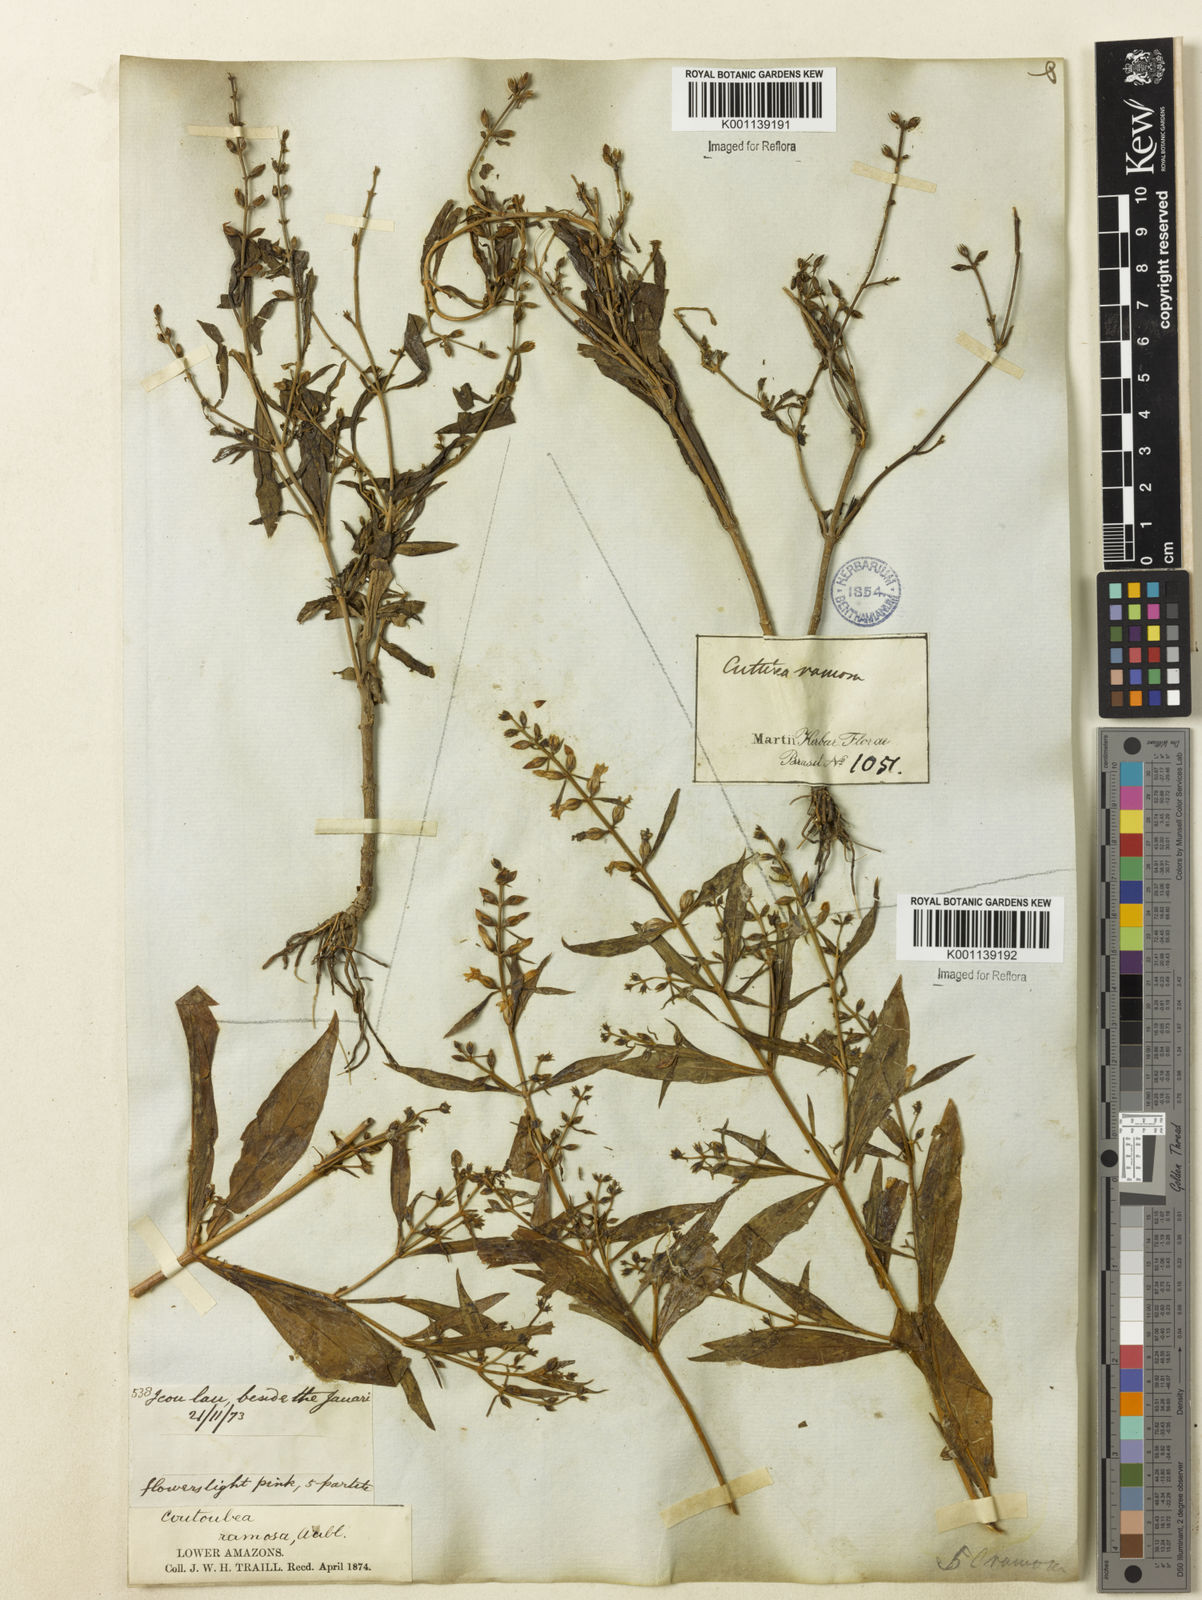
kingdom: Plantae
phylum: Tracheophyta
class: Magnoliopsida
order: Gentianales
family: Gentianaceae
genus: Coutoubea
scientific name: Coutoubea ramosa
